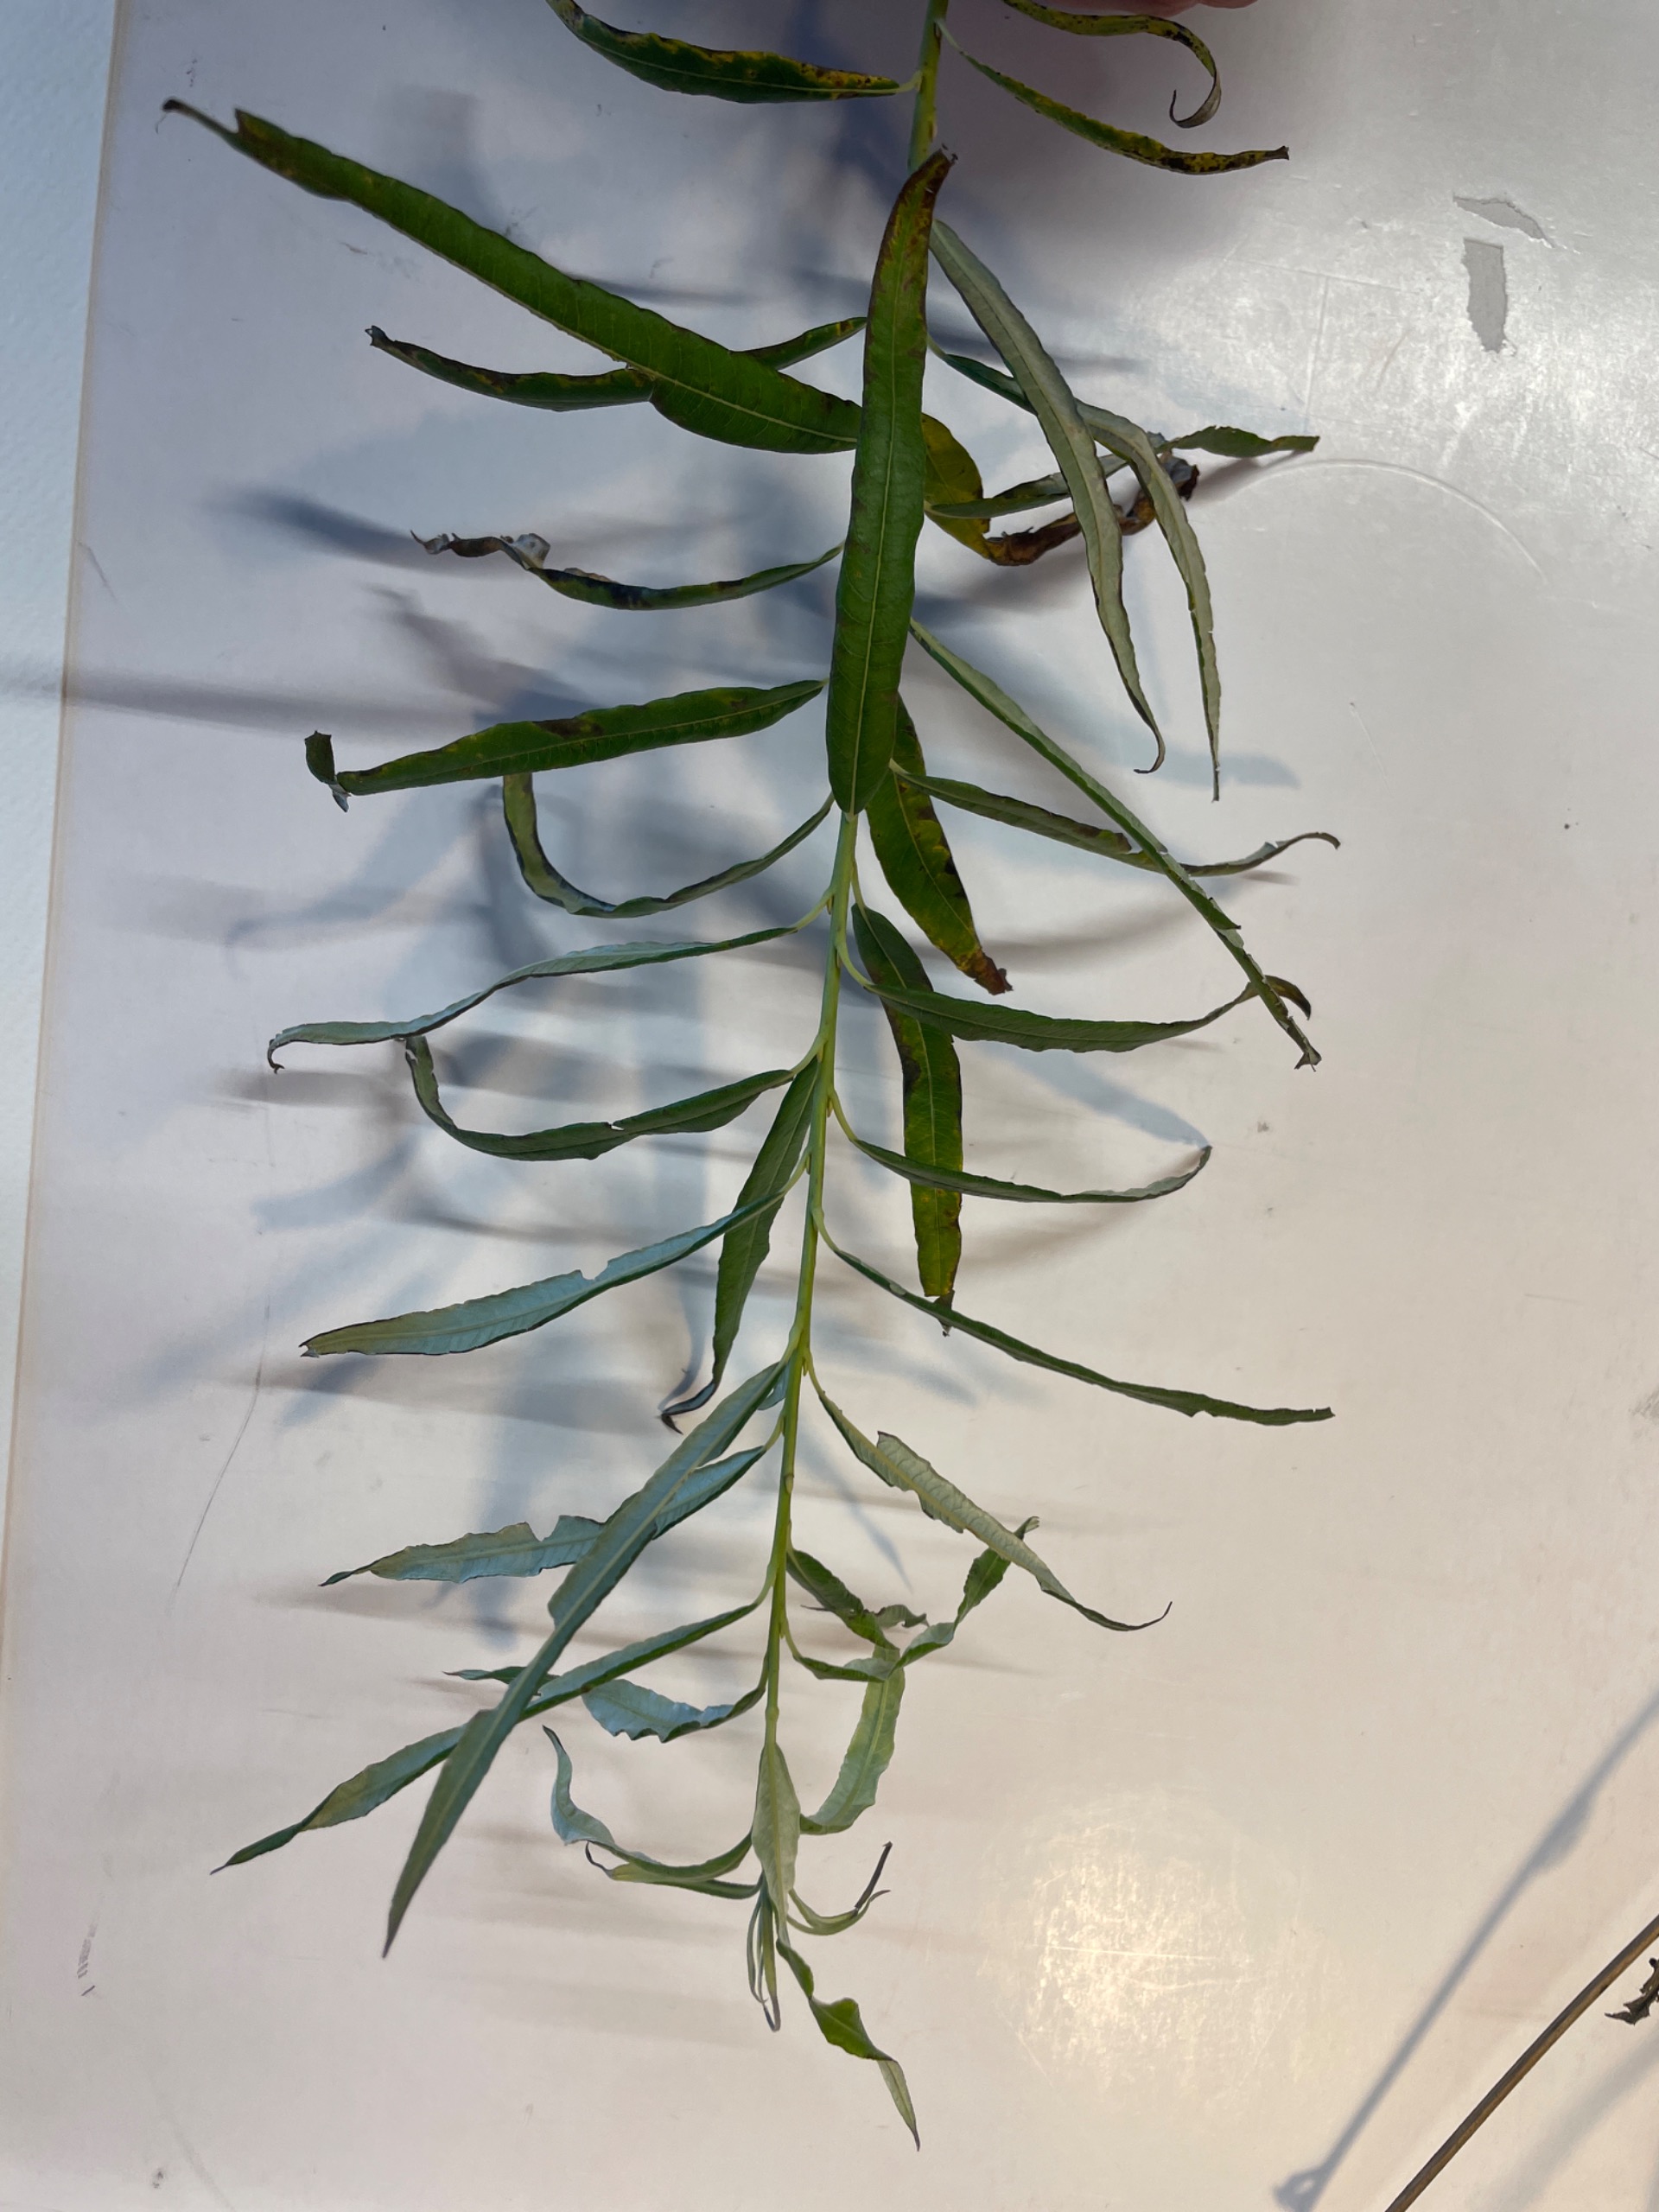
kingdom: Plantae
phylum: Tracheophyta
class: Magnoliopsida
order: Malpighiales
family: Salicaceae
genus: Salix
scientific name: Salix viminalis
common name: Bånd-pil
